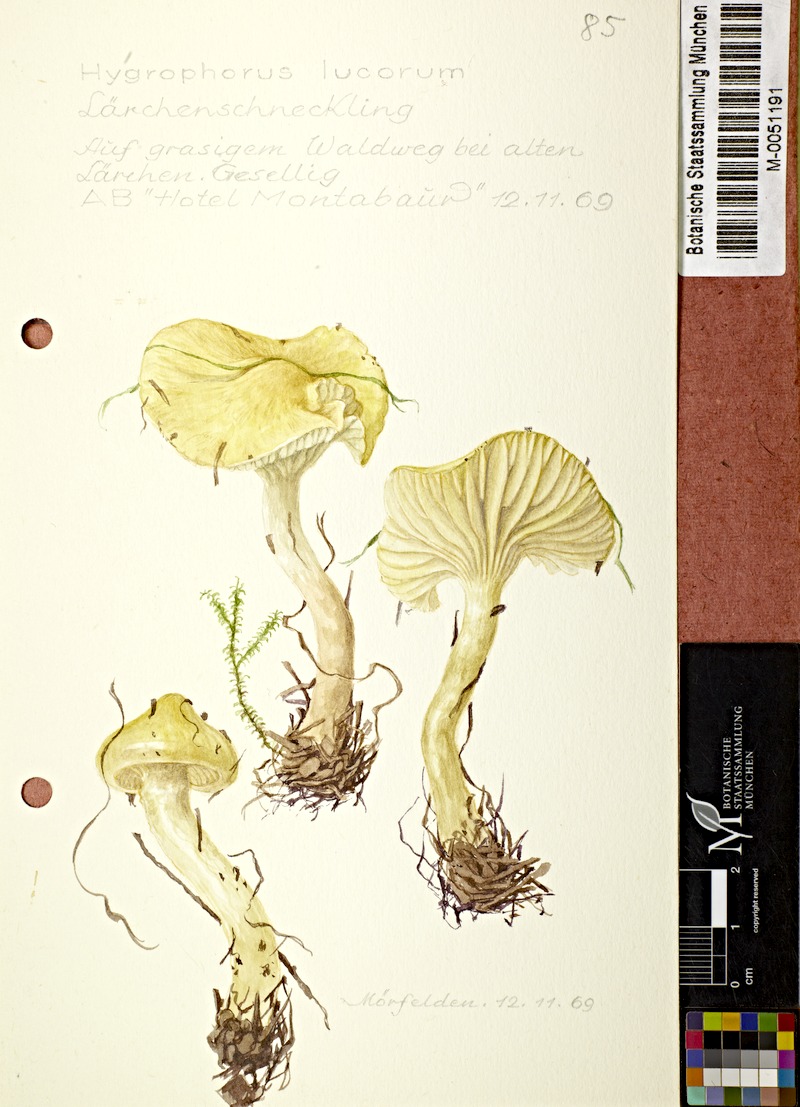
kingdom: Fungi
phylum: Basidiomycota
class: Agaricomycetes
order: Agaricales
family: Hygrophoraceae
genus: Hygrophorus
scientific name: Hygrophorus lucorum
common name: Larch woodwax
